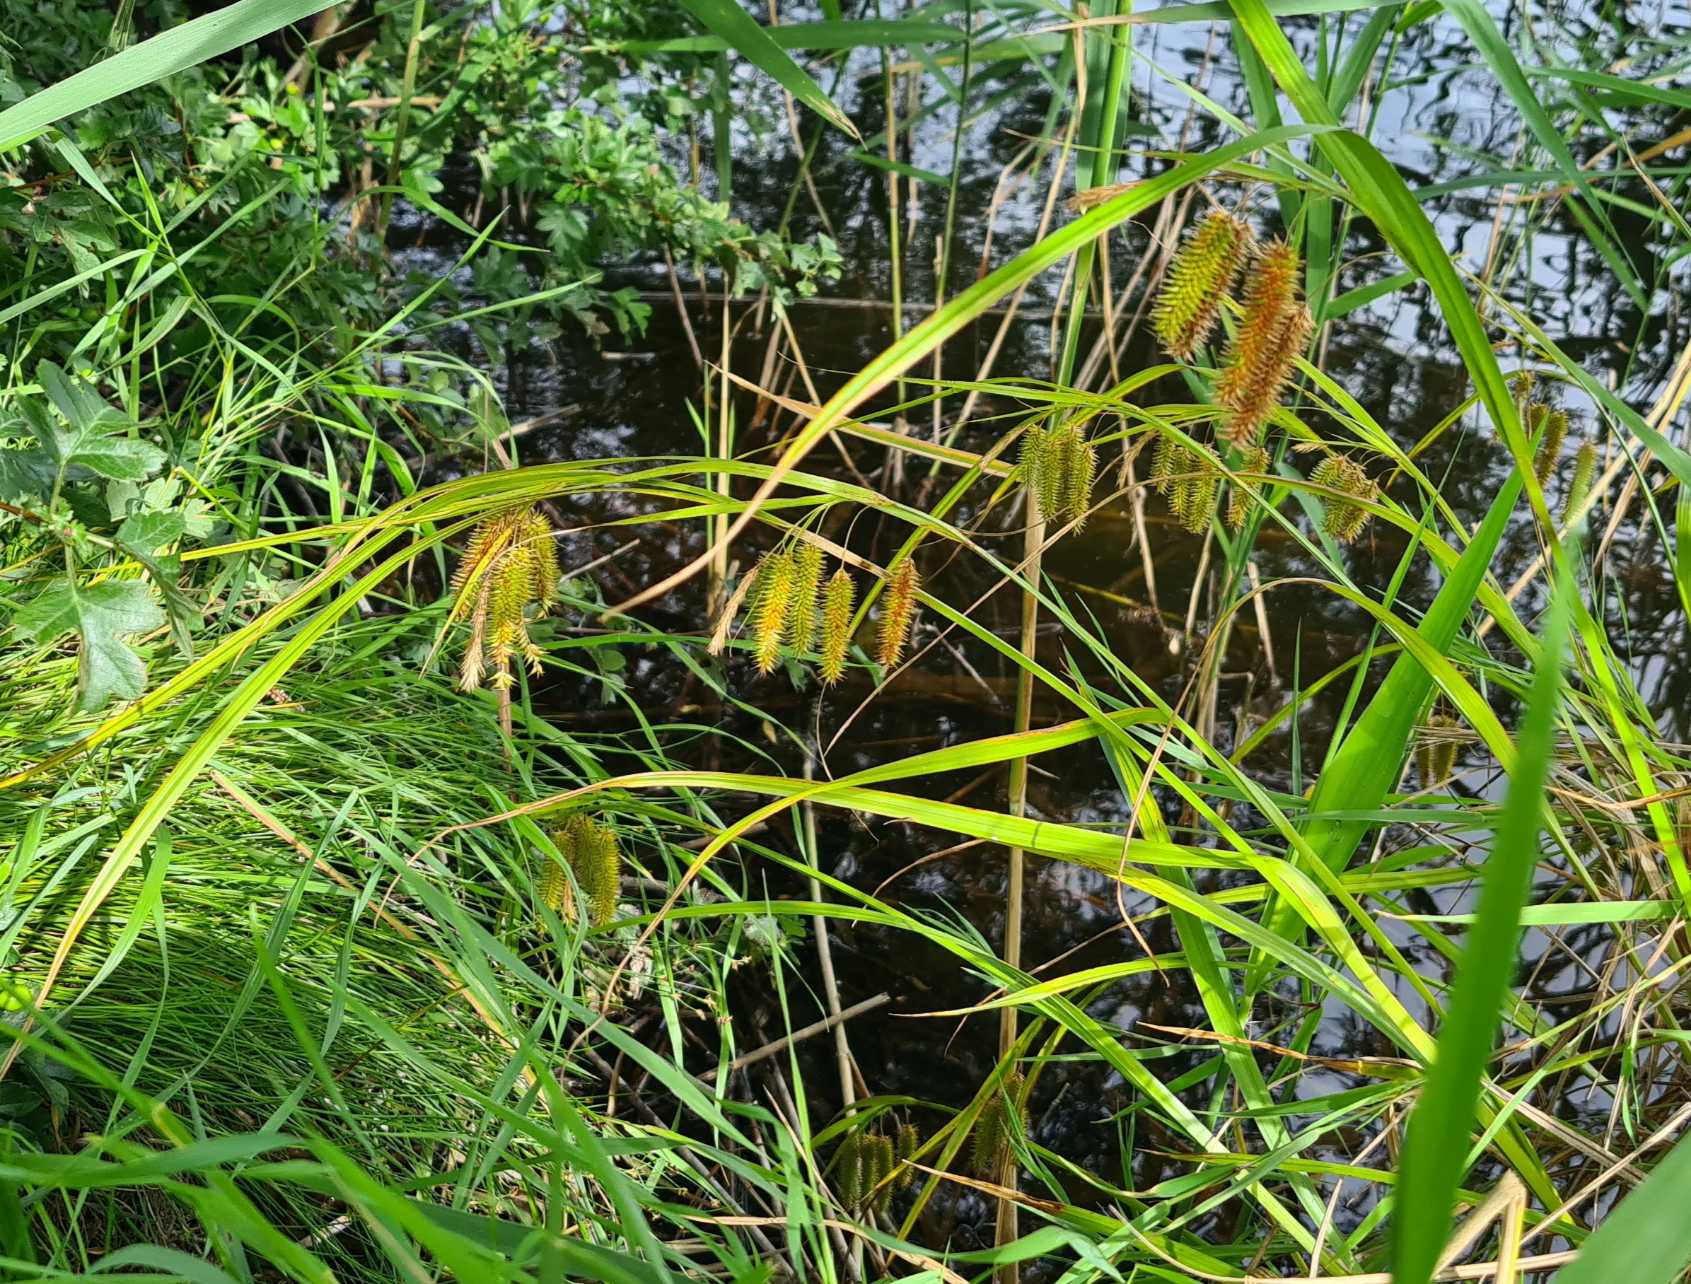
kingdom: Plantae
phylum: Tracheophyta
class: Liliopsida
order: Poales
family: Cyperaceae
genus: Carex
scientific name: Carex pseudocyperus
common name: Knippe-star
